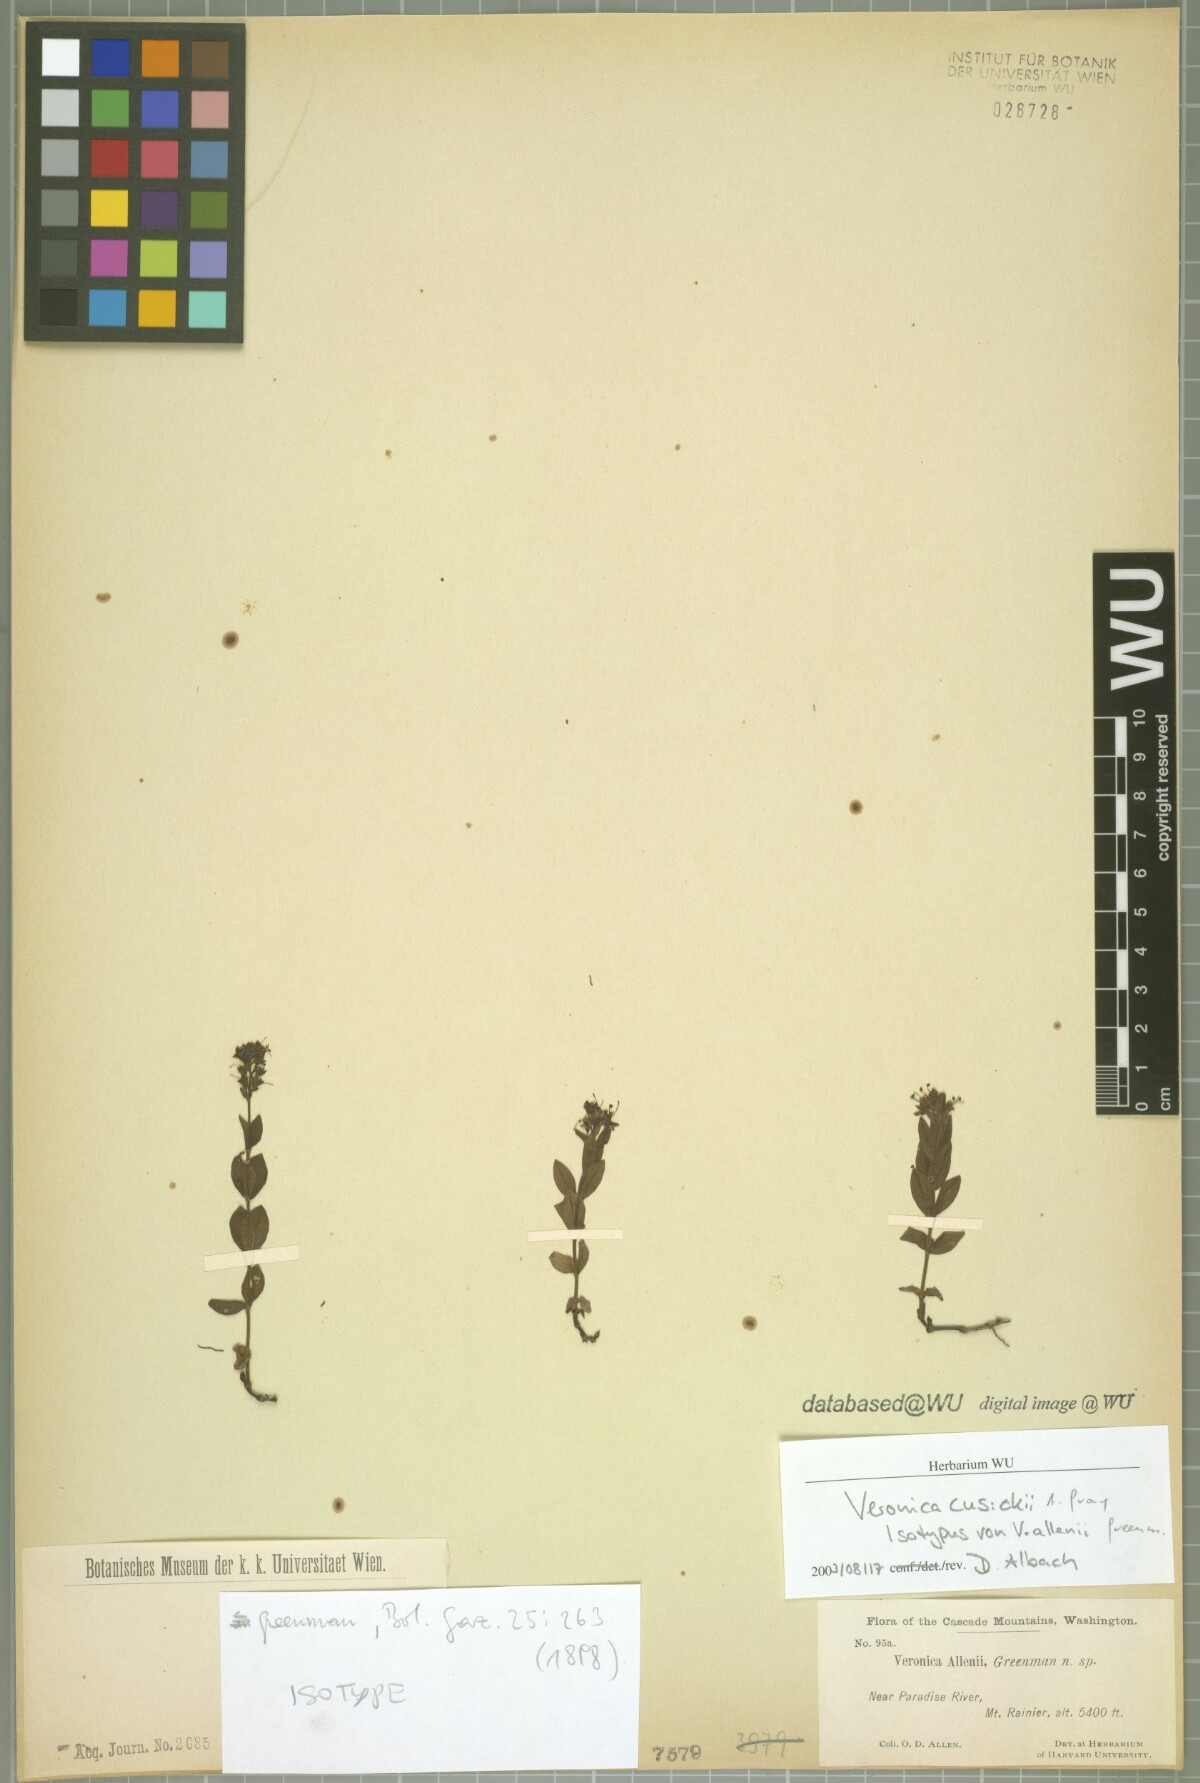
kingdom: Plantae
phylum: Tracheophyta
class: Magnoliopsida
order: Lamiales
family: Plantaginaceae
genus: Veronica
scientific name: Veronica cusickii
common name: Cusick's speedwell
